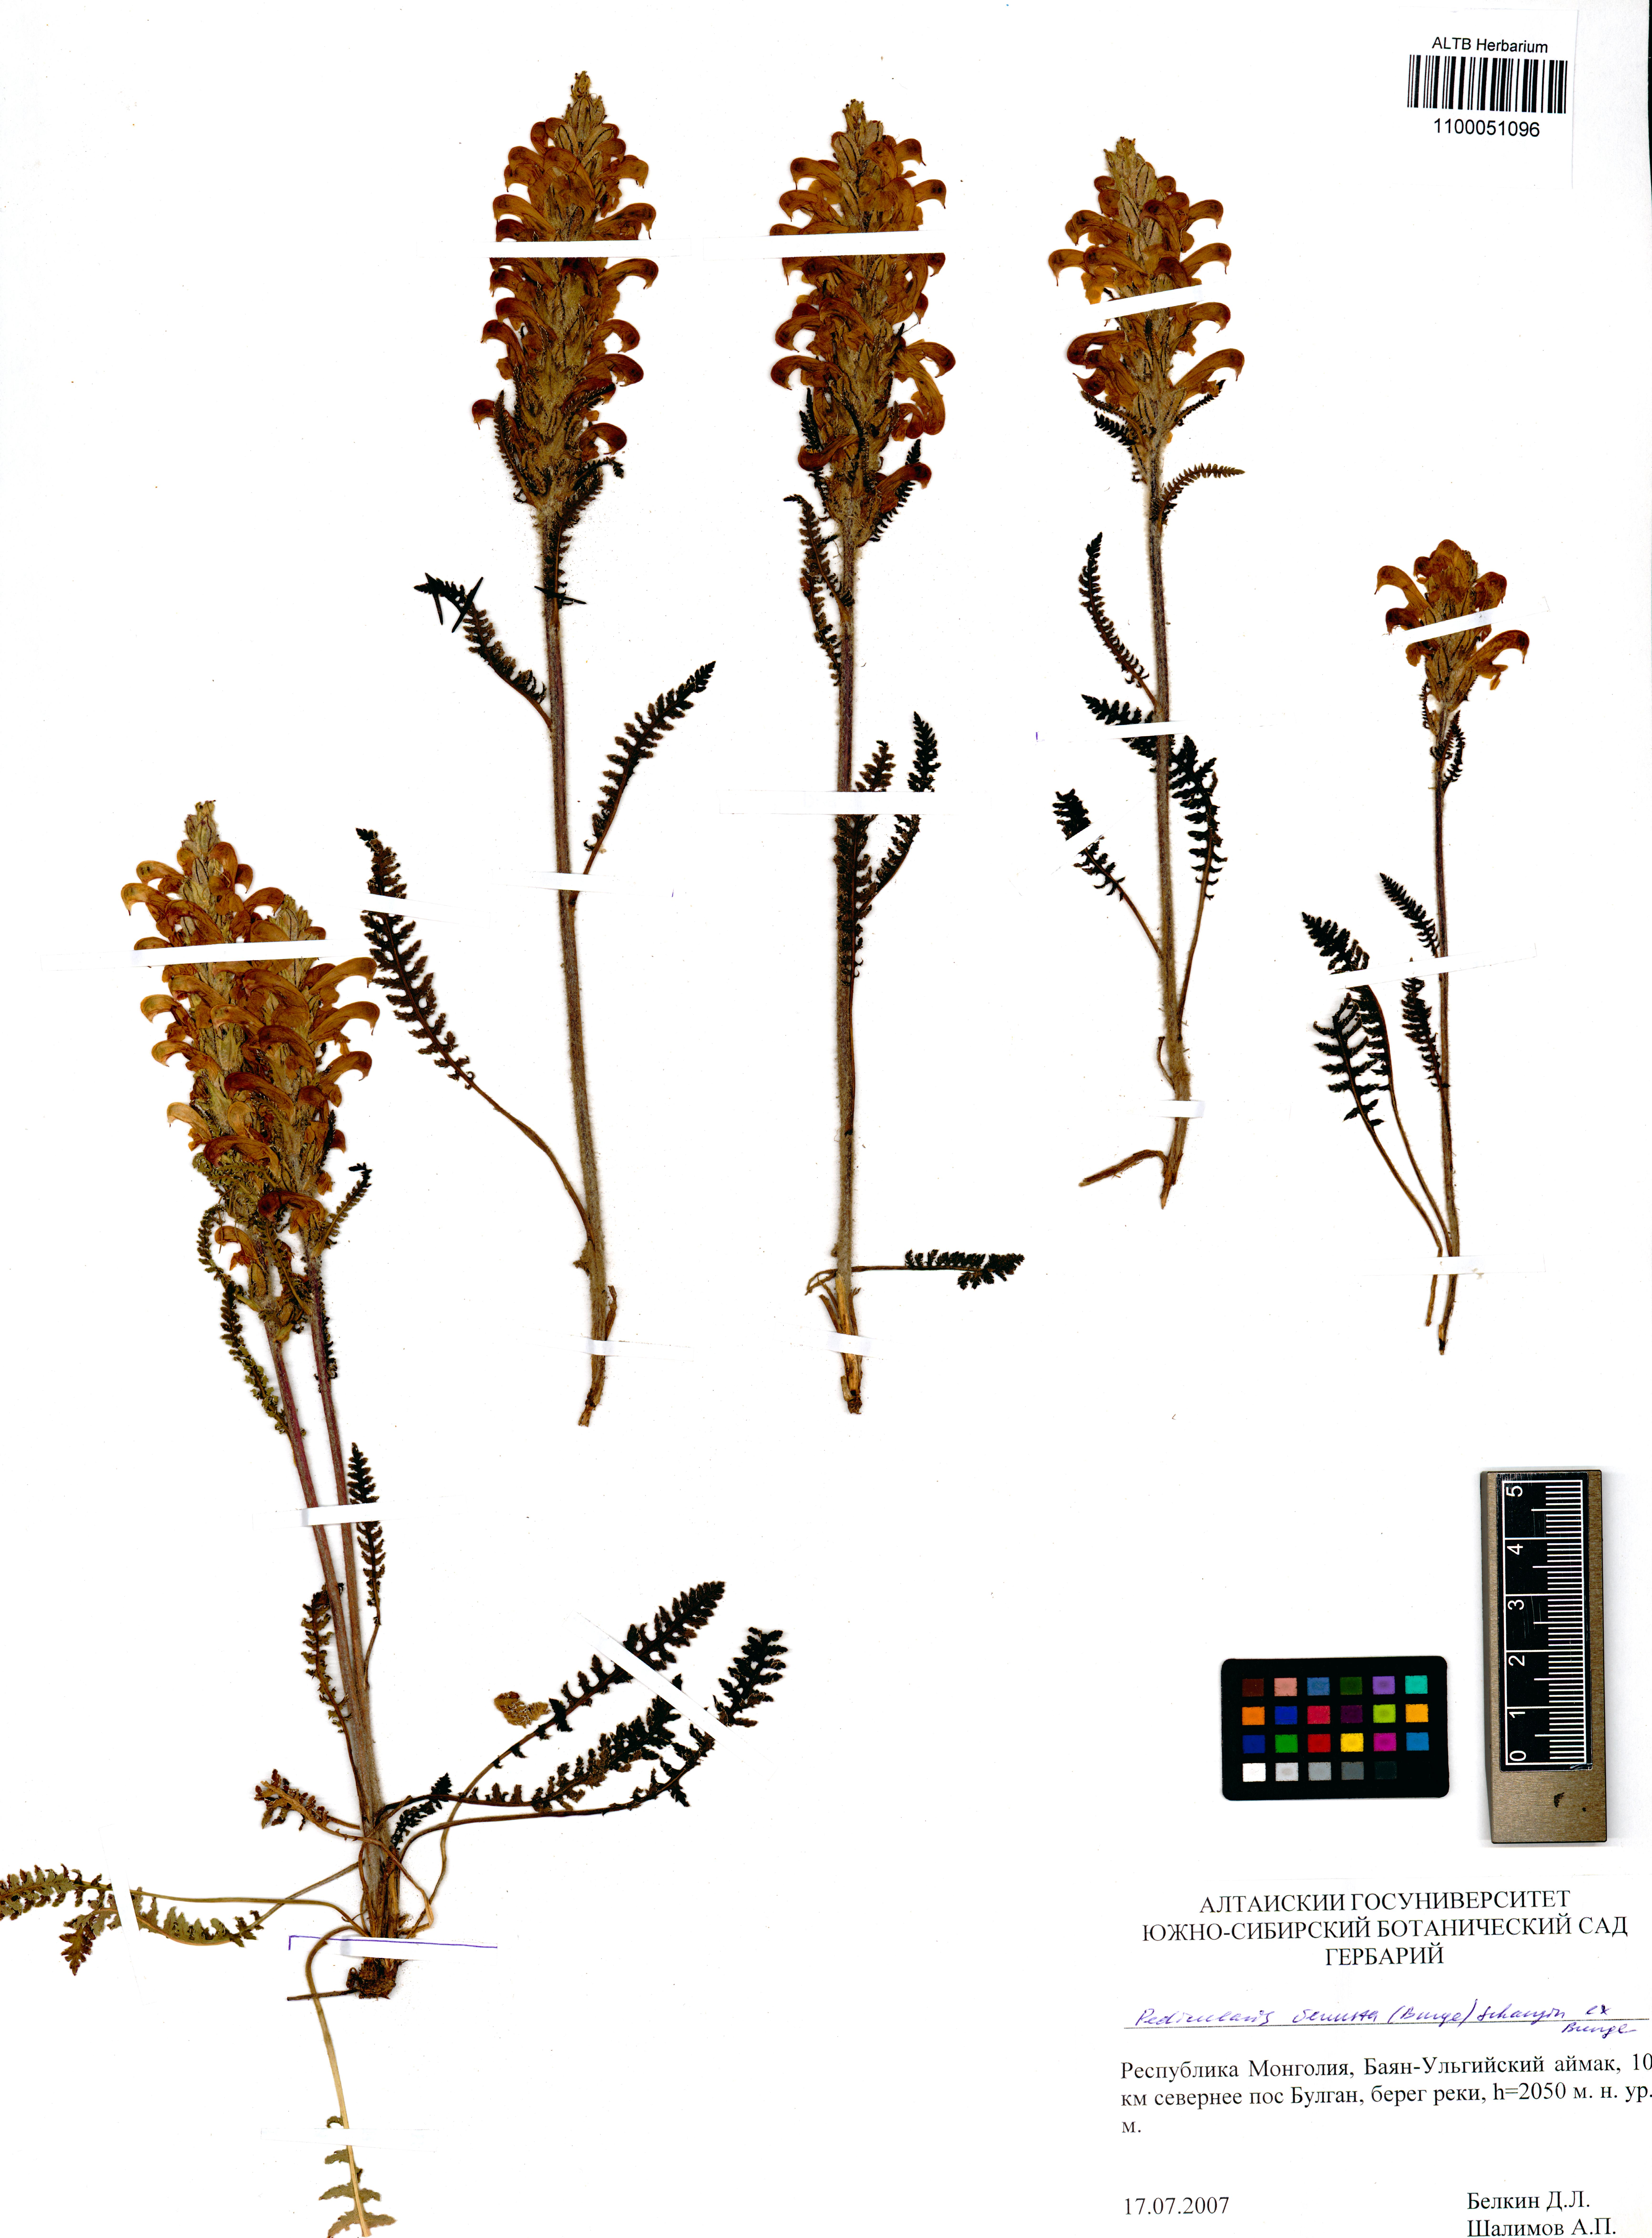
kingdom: Plantae
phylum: Tracheophyta
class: Magnoliopsida
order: Lamiales
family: Orobanchaceae
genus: Pedicularis
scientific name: Pedicularis venusta
